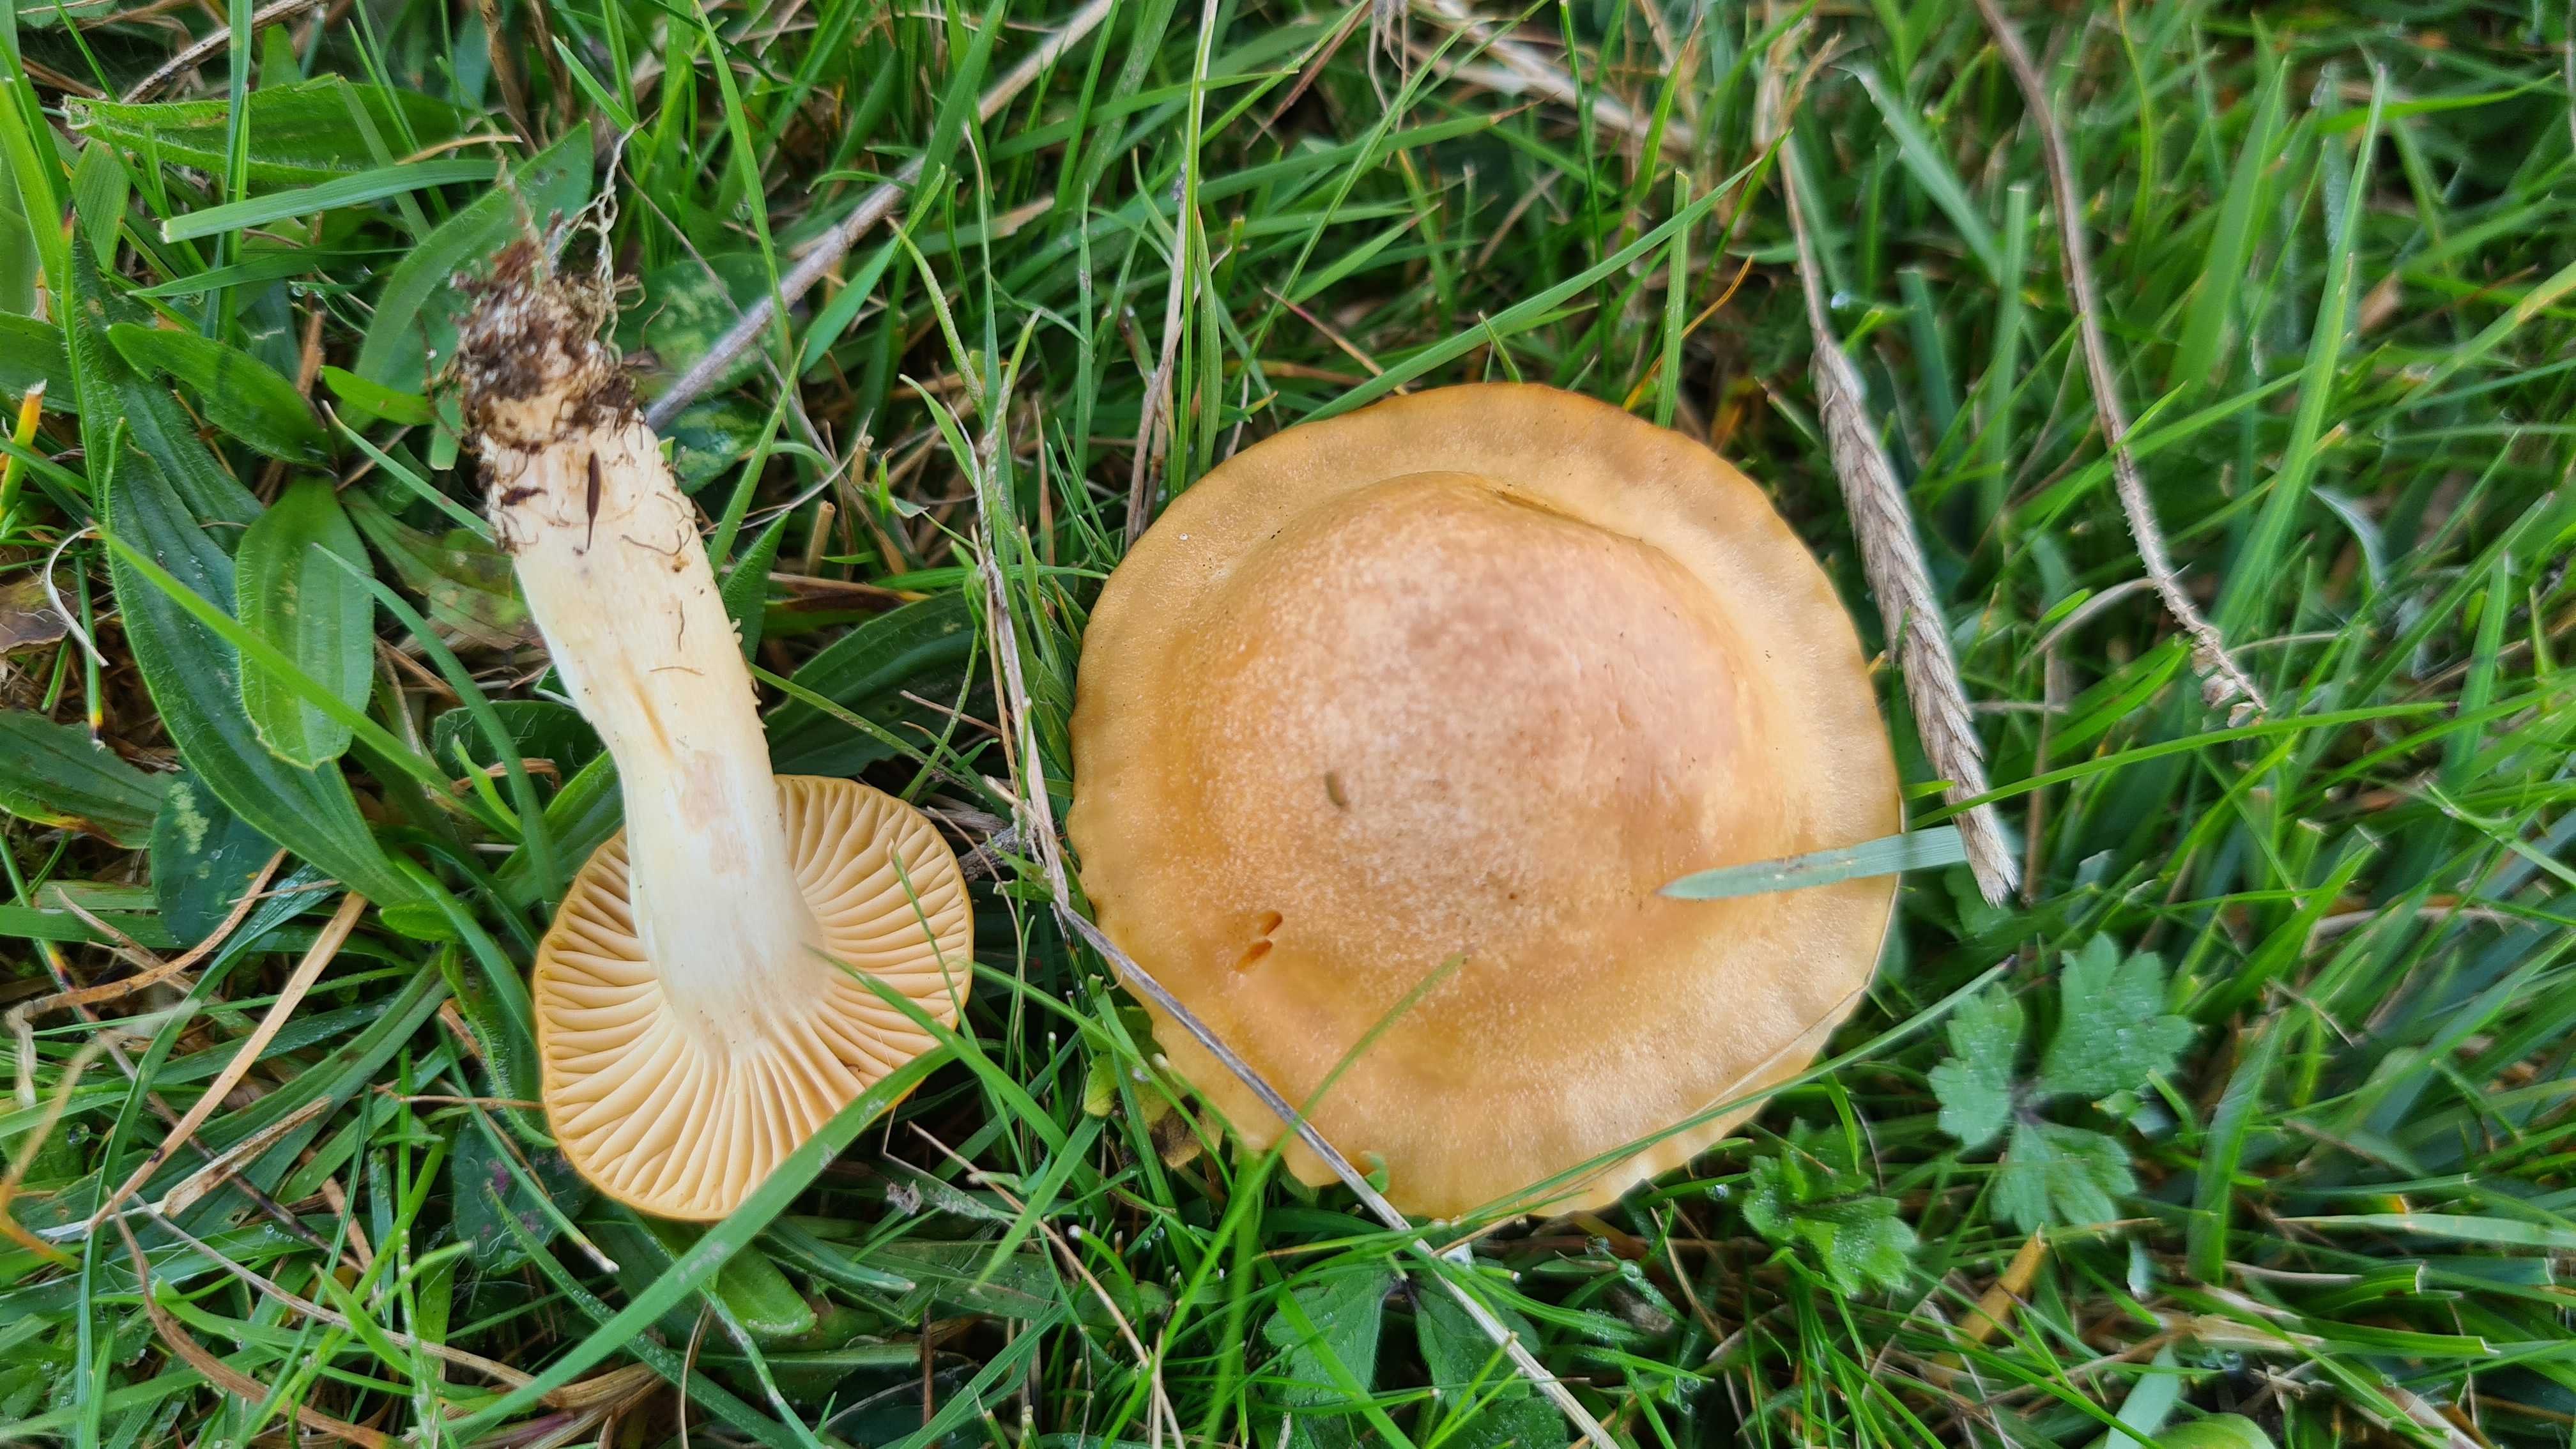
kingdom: Fungi
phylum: Basidiomycota
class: Agaricomycetes
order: Agaricales
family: Hygrophoraceae
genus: Cuphophyllus
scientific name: Cuphophyllus pratensis
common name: eng-vokshat
